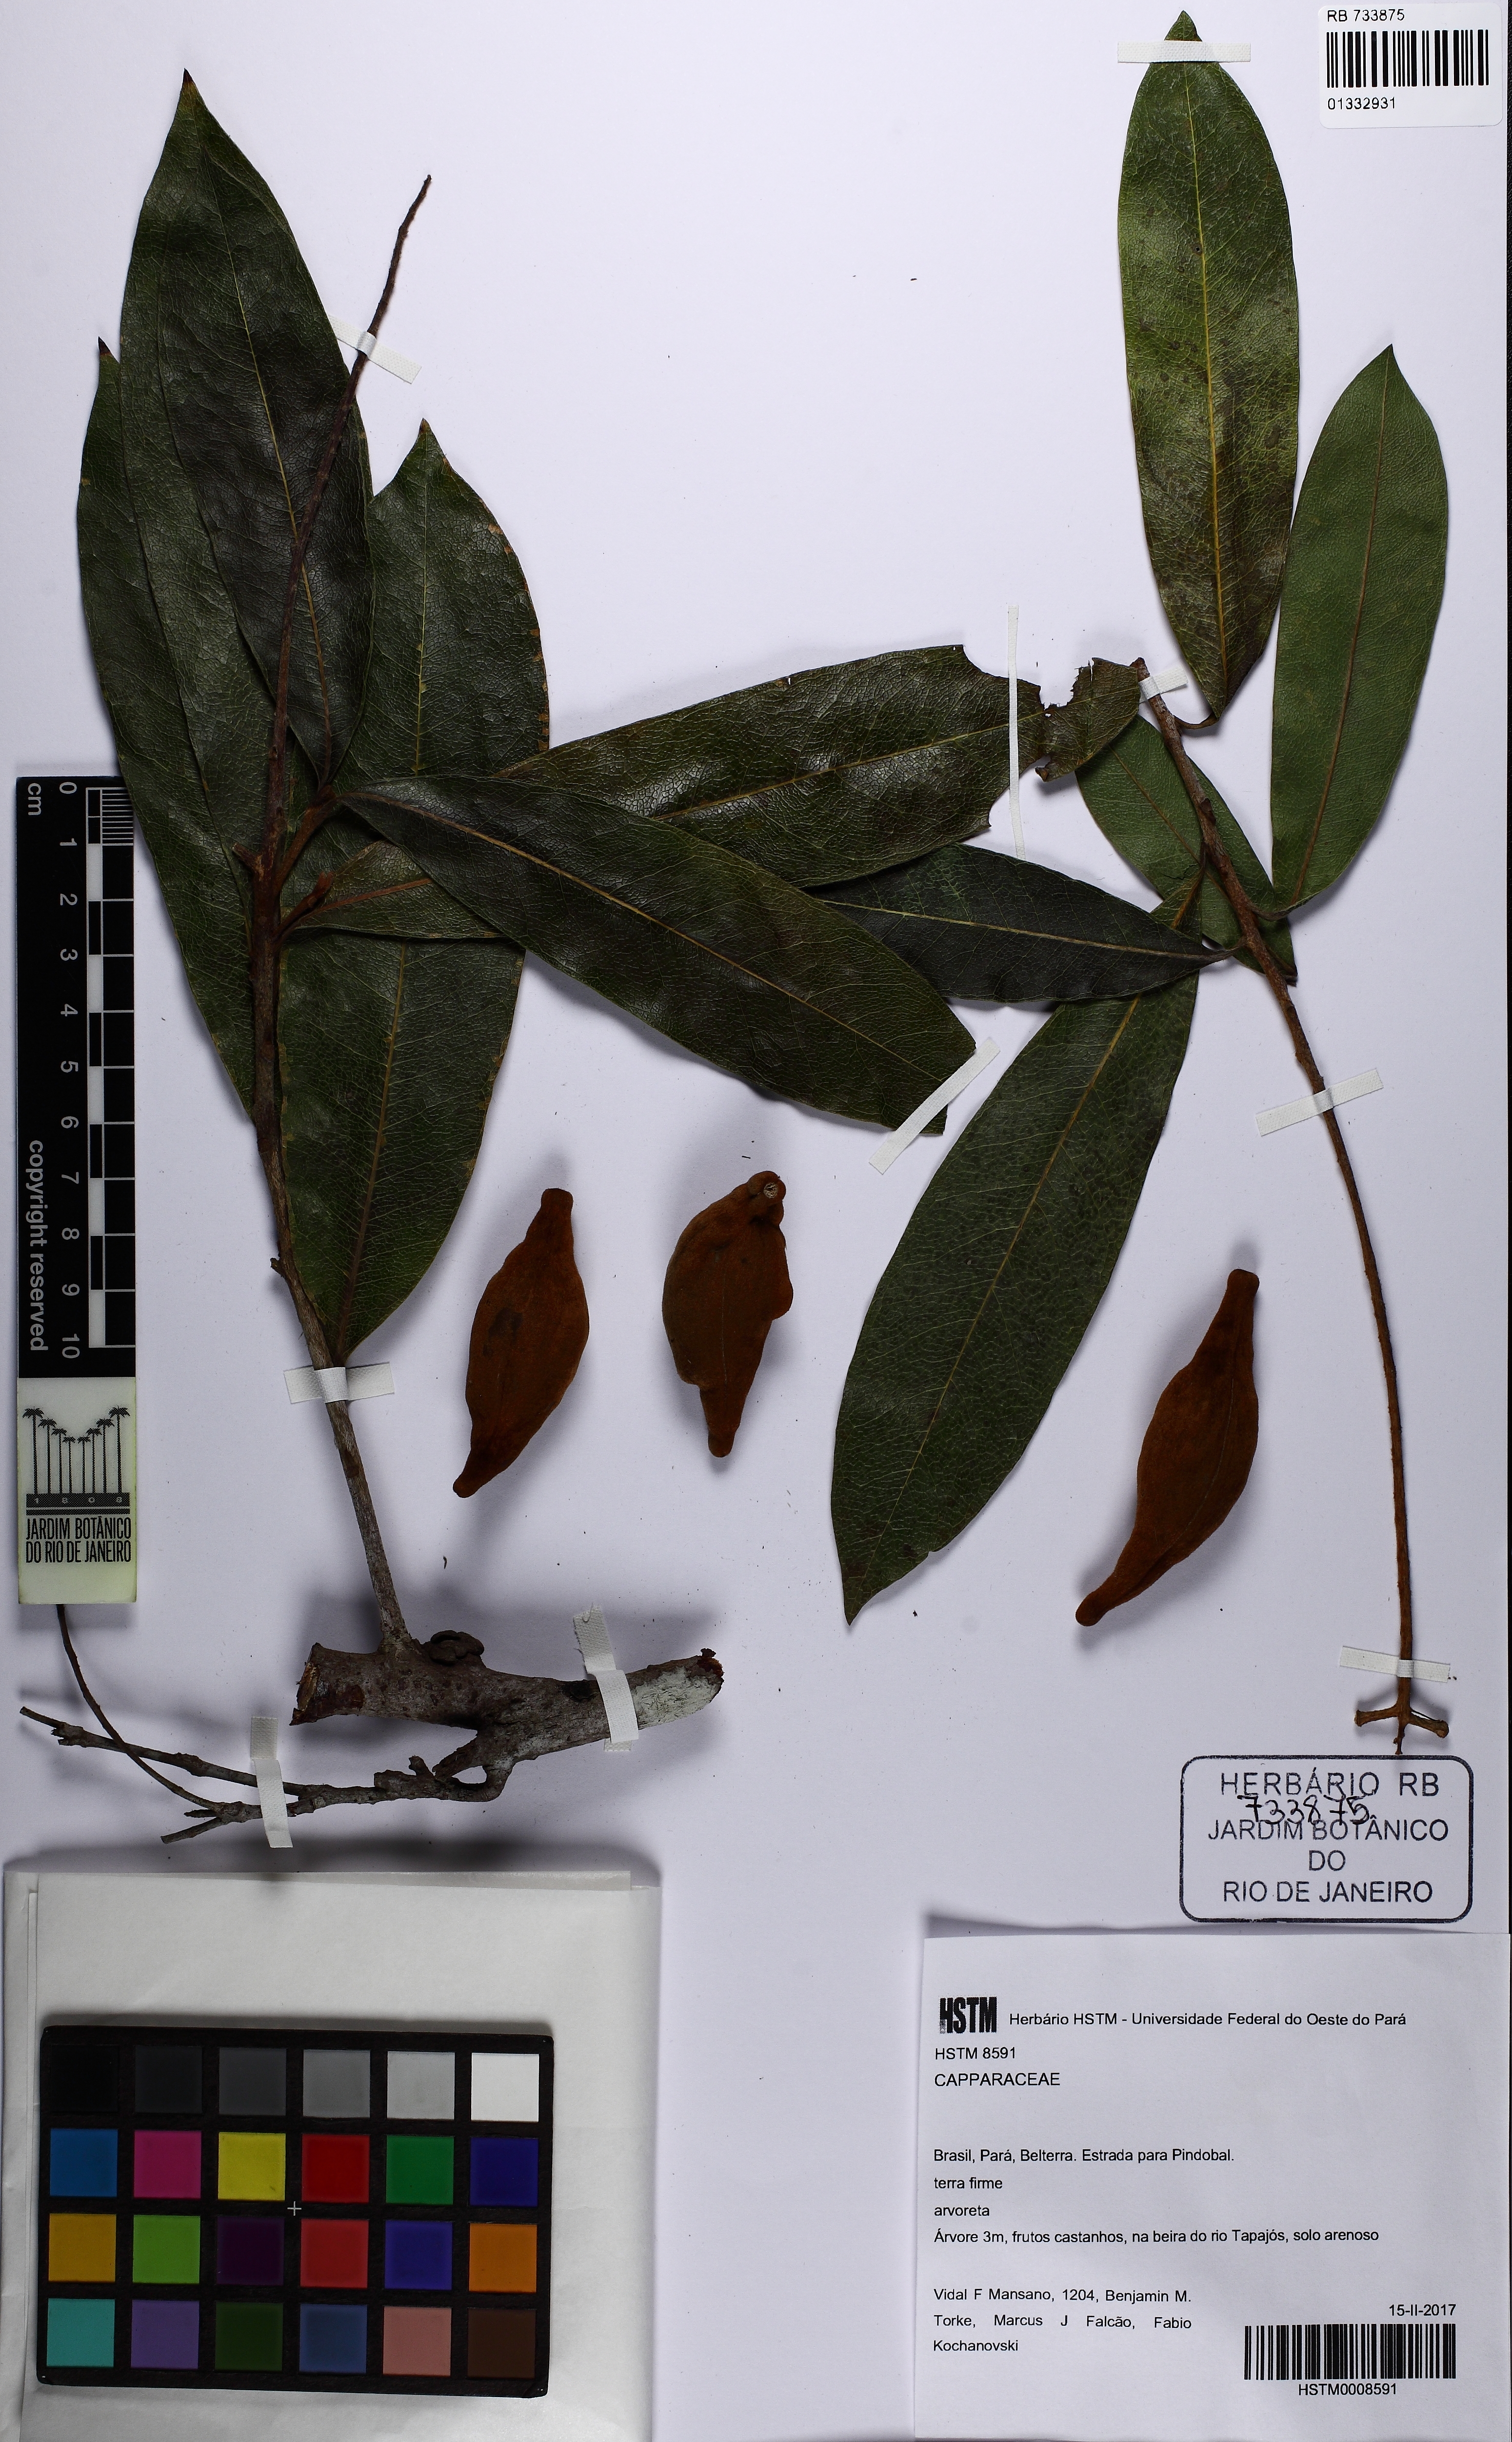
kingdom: Plantae
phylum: Tracheophyta
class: Magnoliopsida
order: Proteales
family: Proteaceae
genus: Panopsis
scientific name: Panopsis
